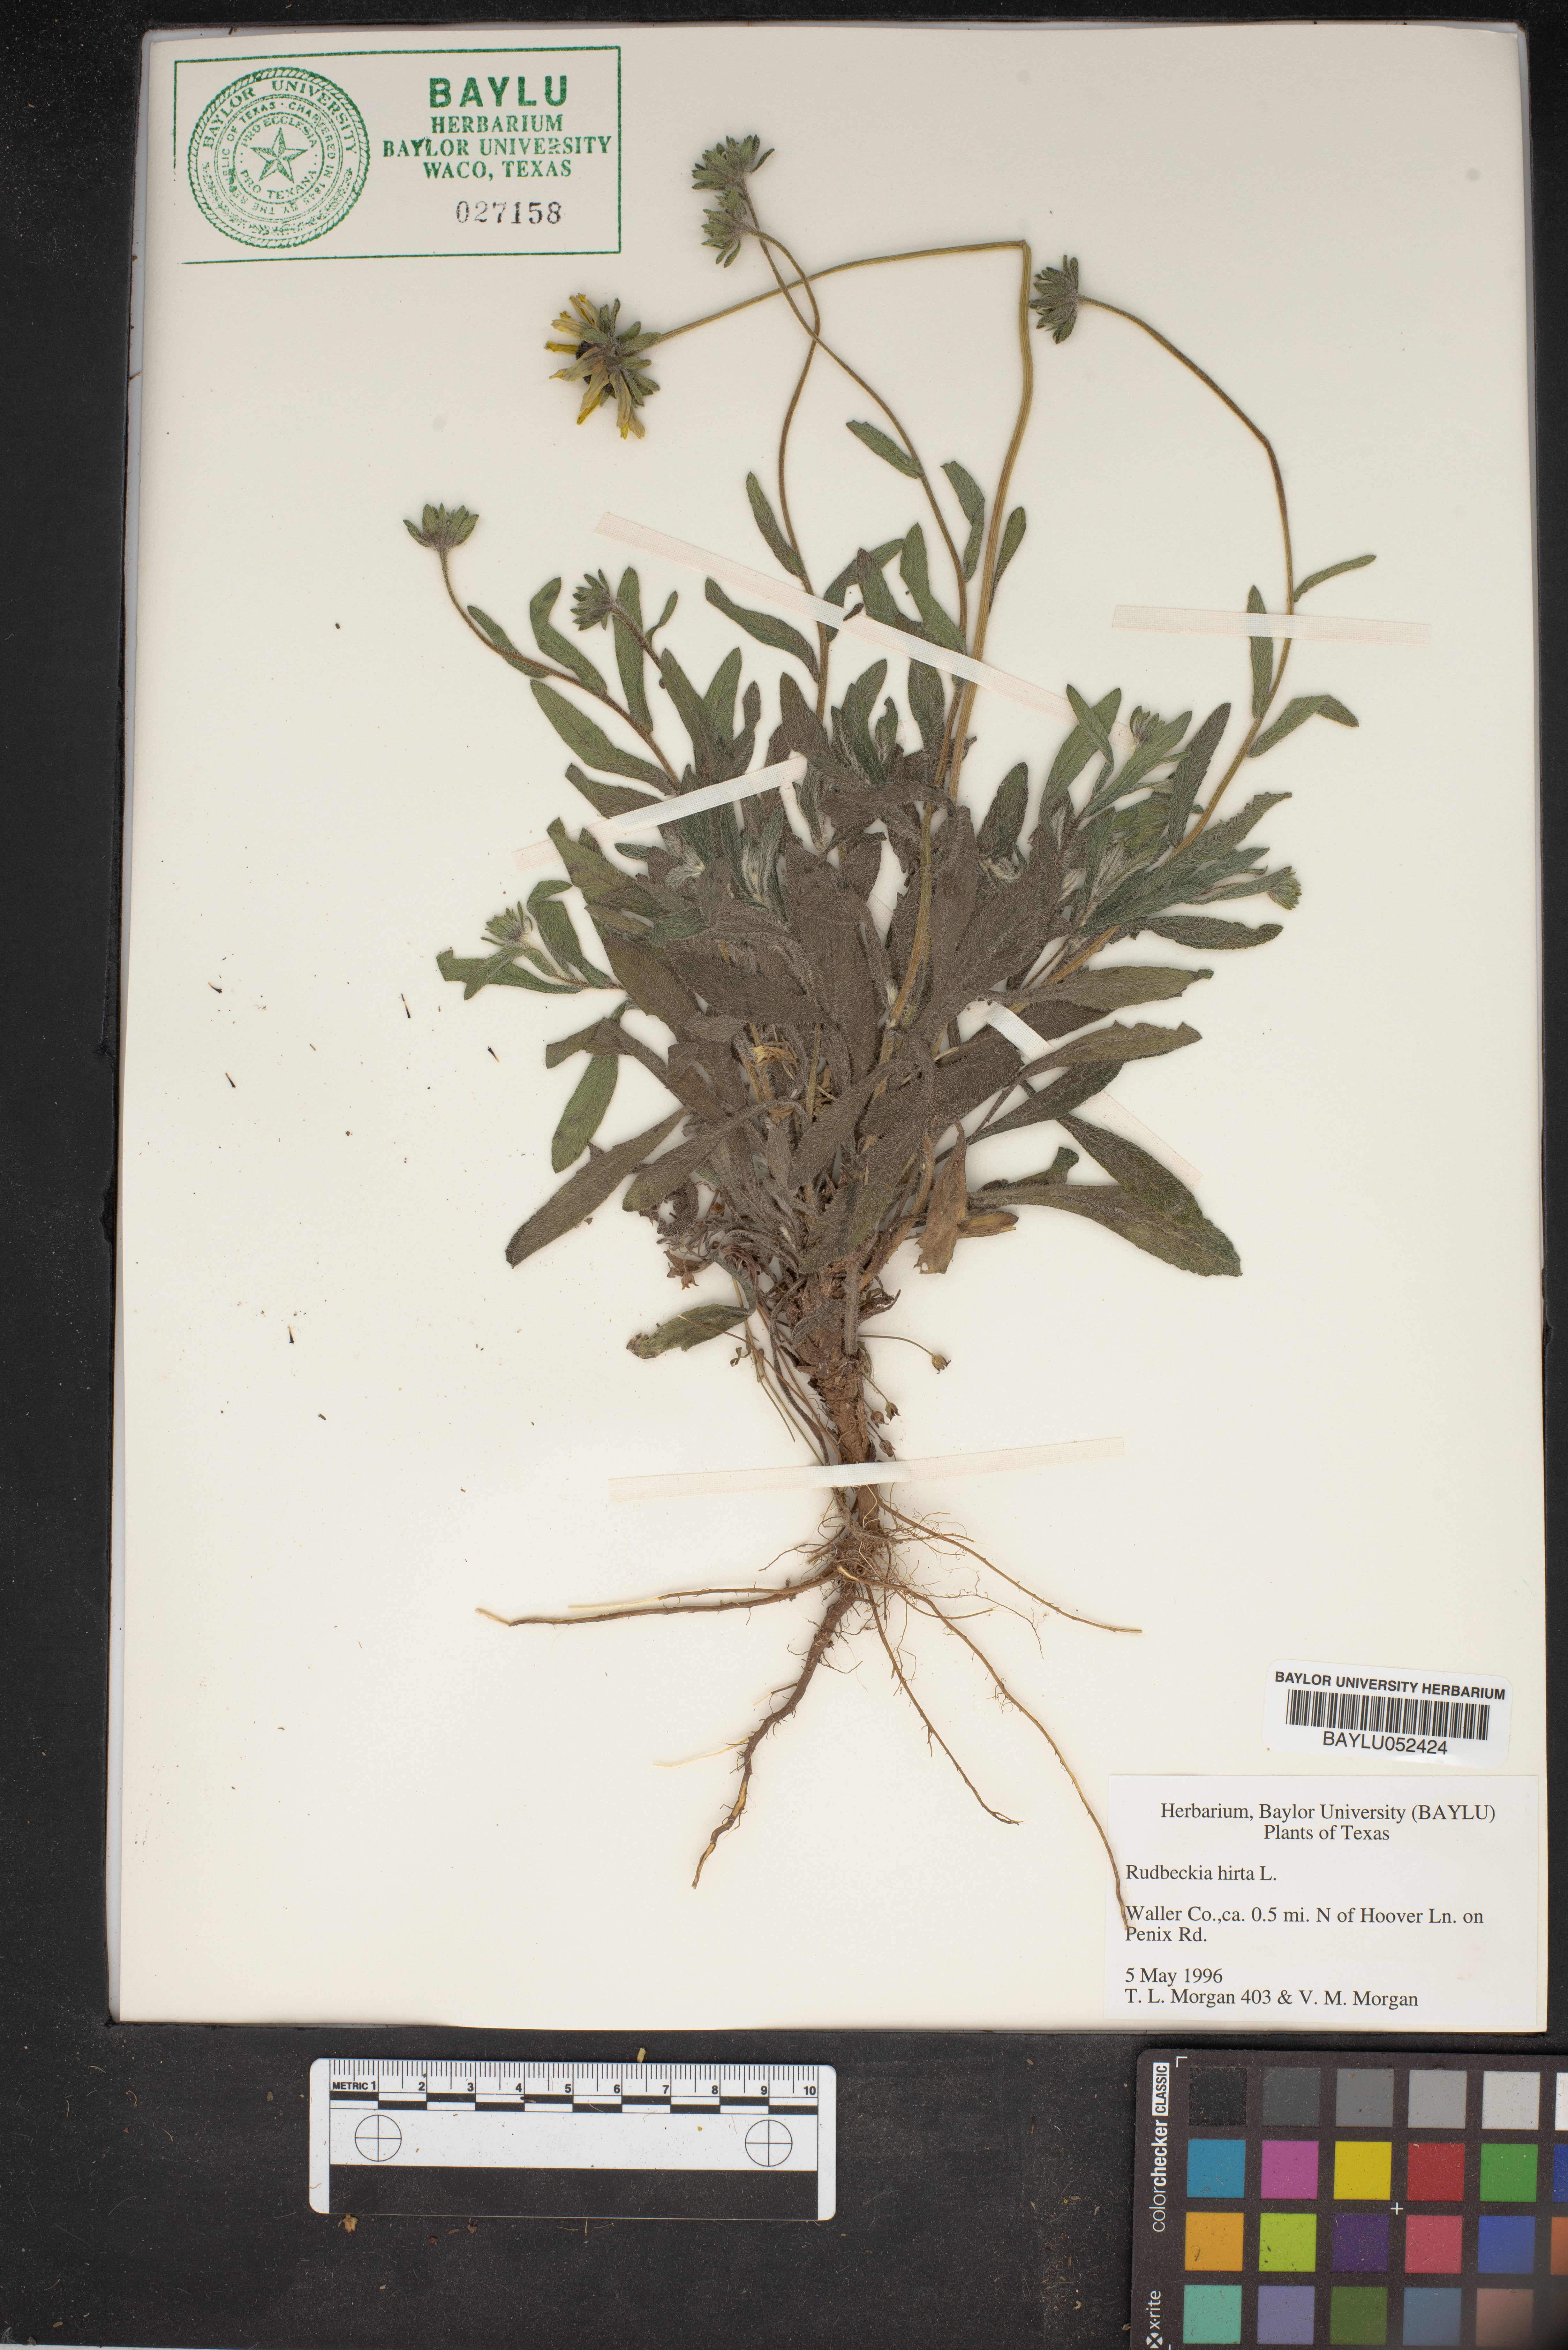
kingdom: Plantae
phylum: Tracheophyta
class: Magnoliopsida
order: Asterales
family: Asteraceae
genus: Rudbeckia
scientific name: Rudbeckia hirta
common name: Black-eyed-susan
